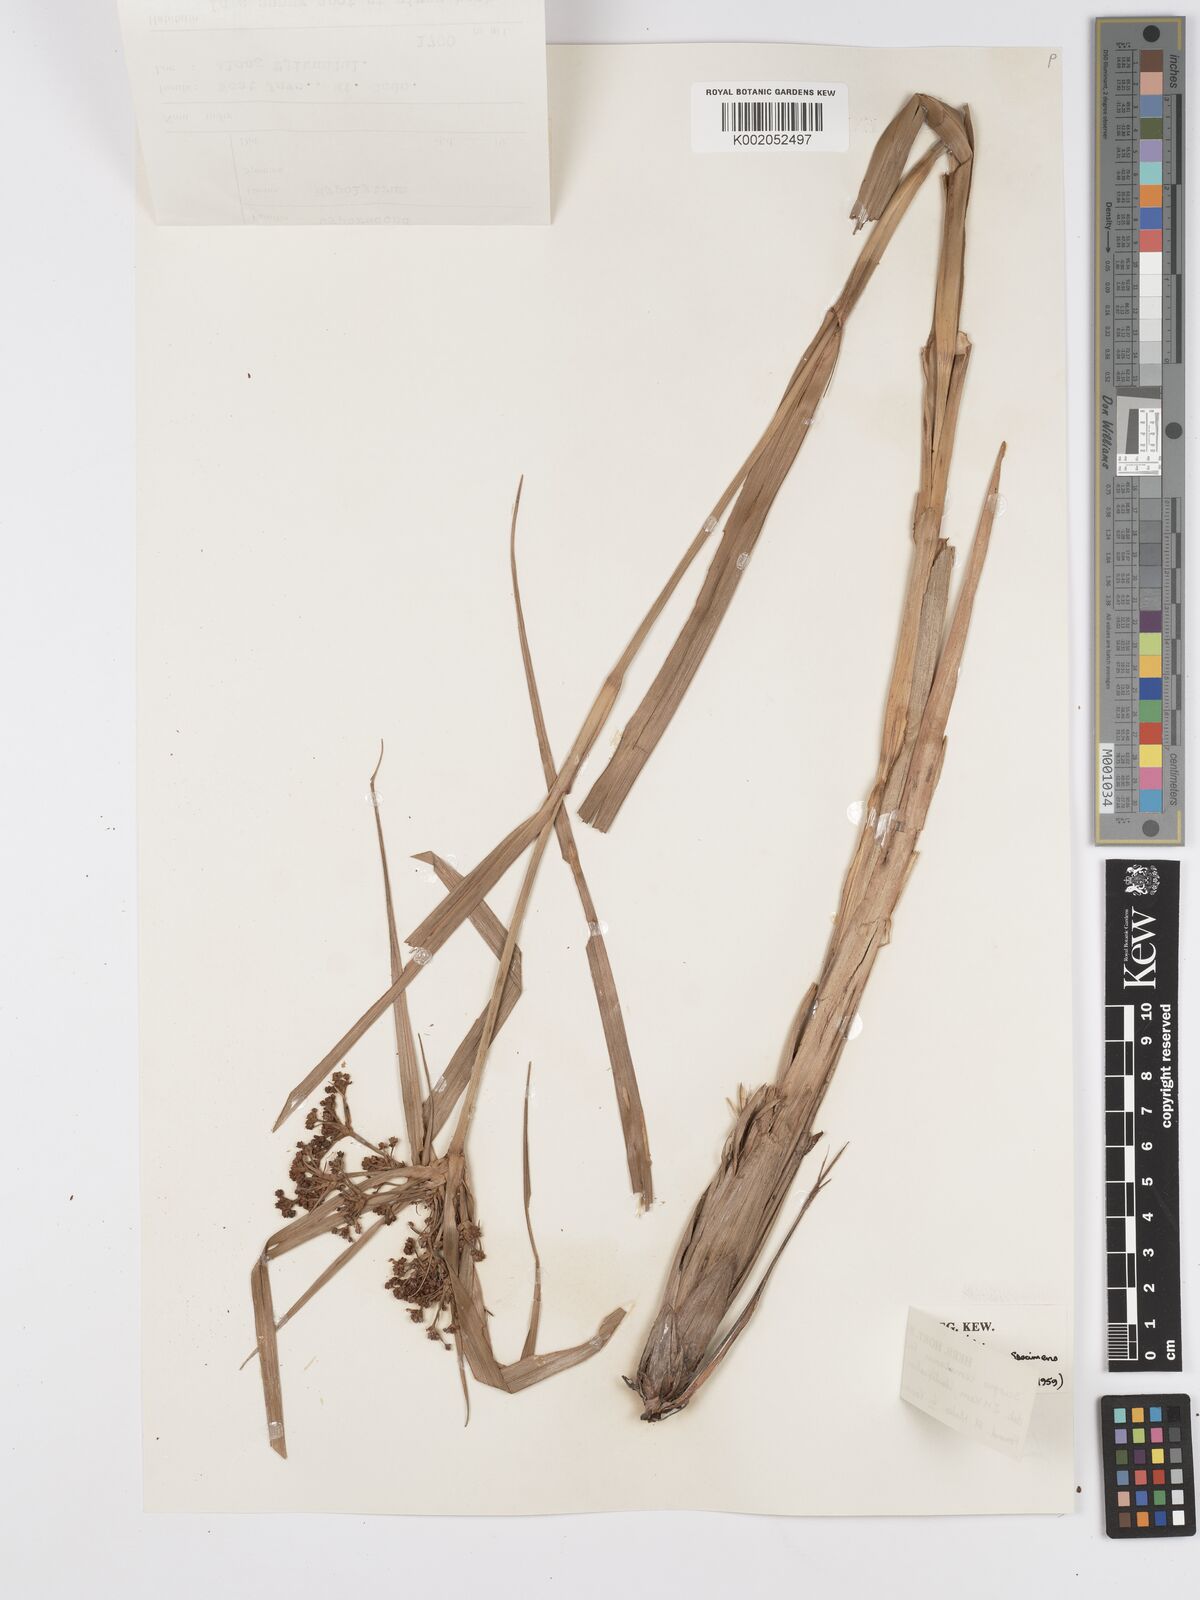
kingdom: Plantae
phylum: Tracheophyta
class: Liliopsida
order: Poales
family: Cyperaceae
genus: Scirpus
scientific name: Scirpus lineatus
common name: Drooping bulrush
